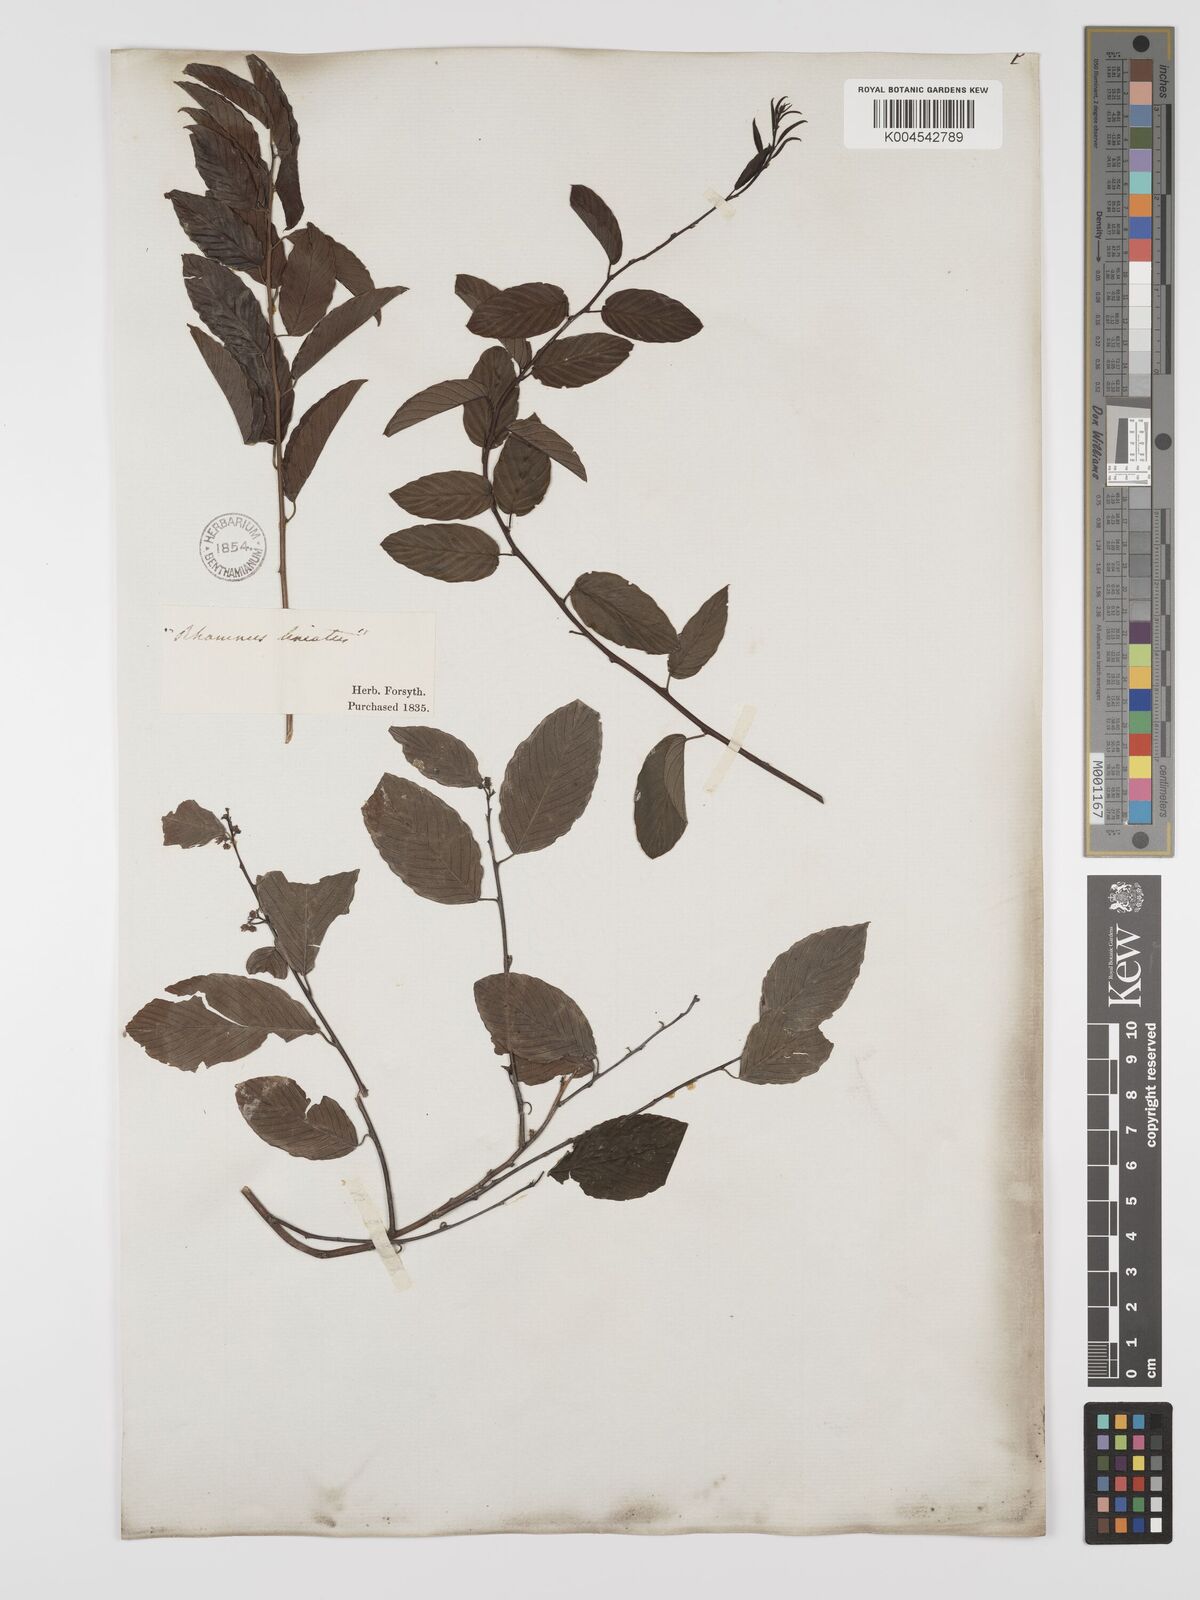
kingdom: Plantae
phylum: Tracheophyta
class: Magnoliopsida
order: Rosales
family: Rhamnaceae
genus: Berchemia
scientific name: Berchemia scandens
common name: Supplejack
